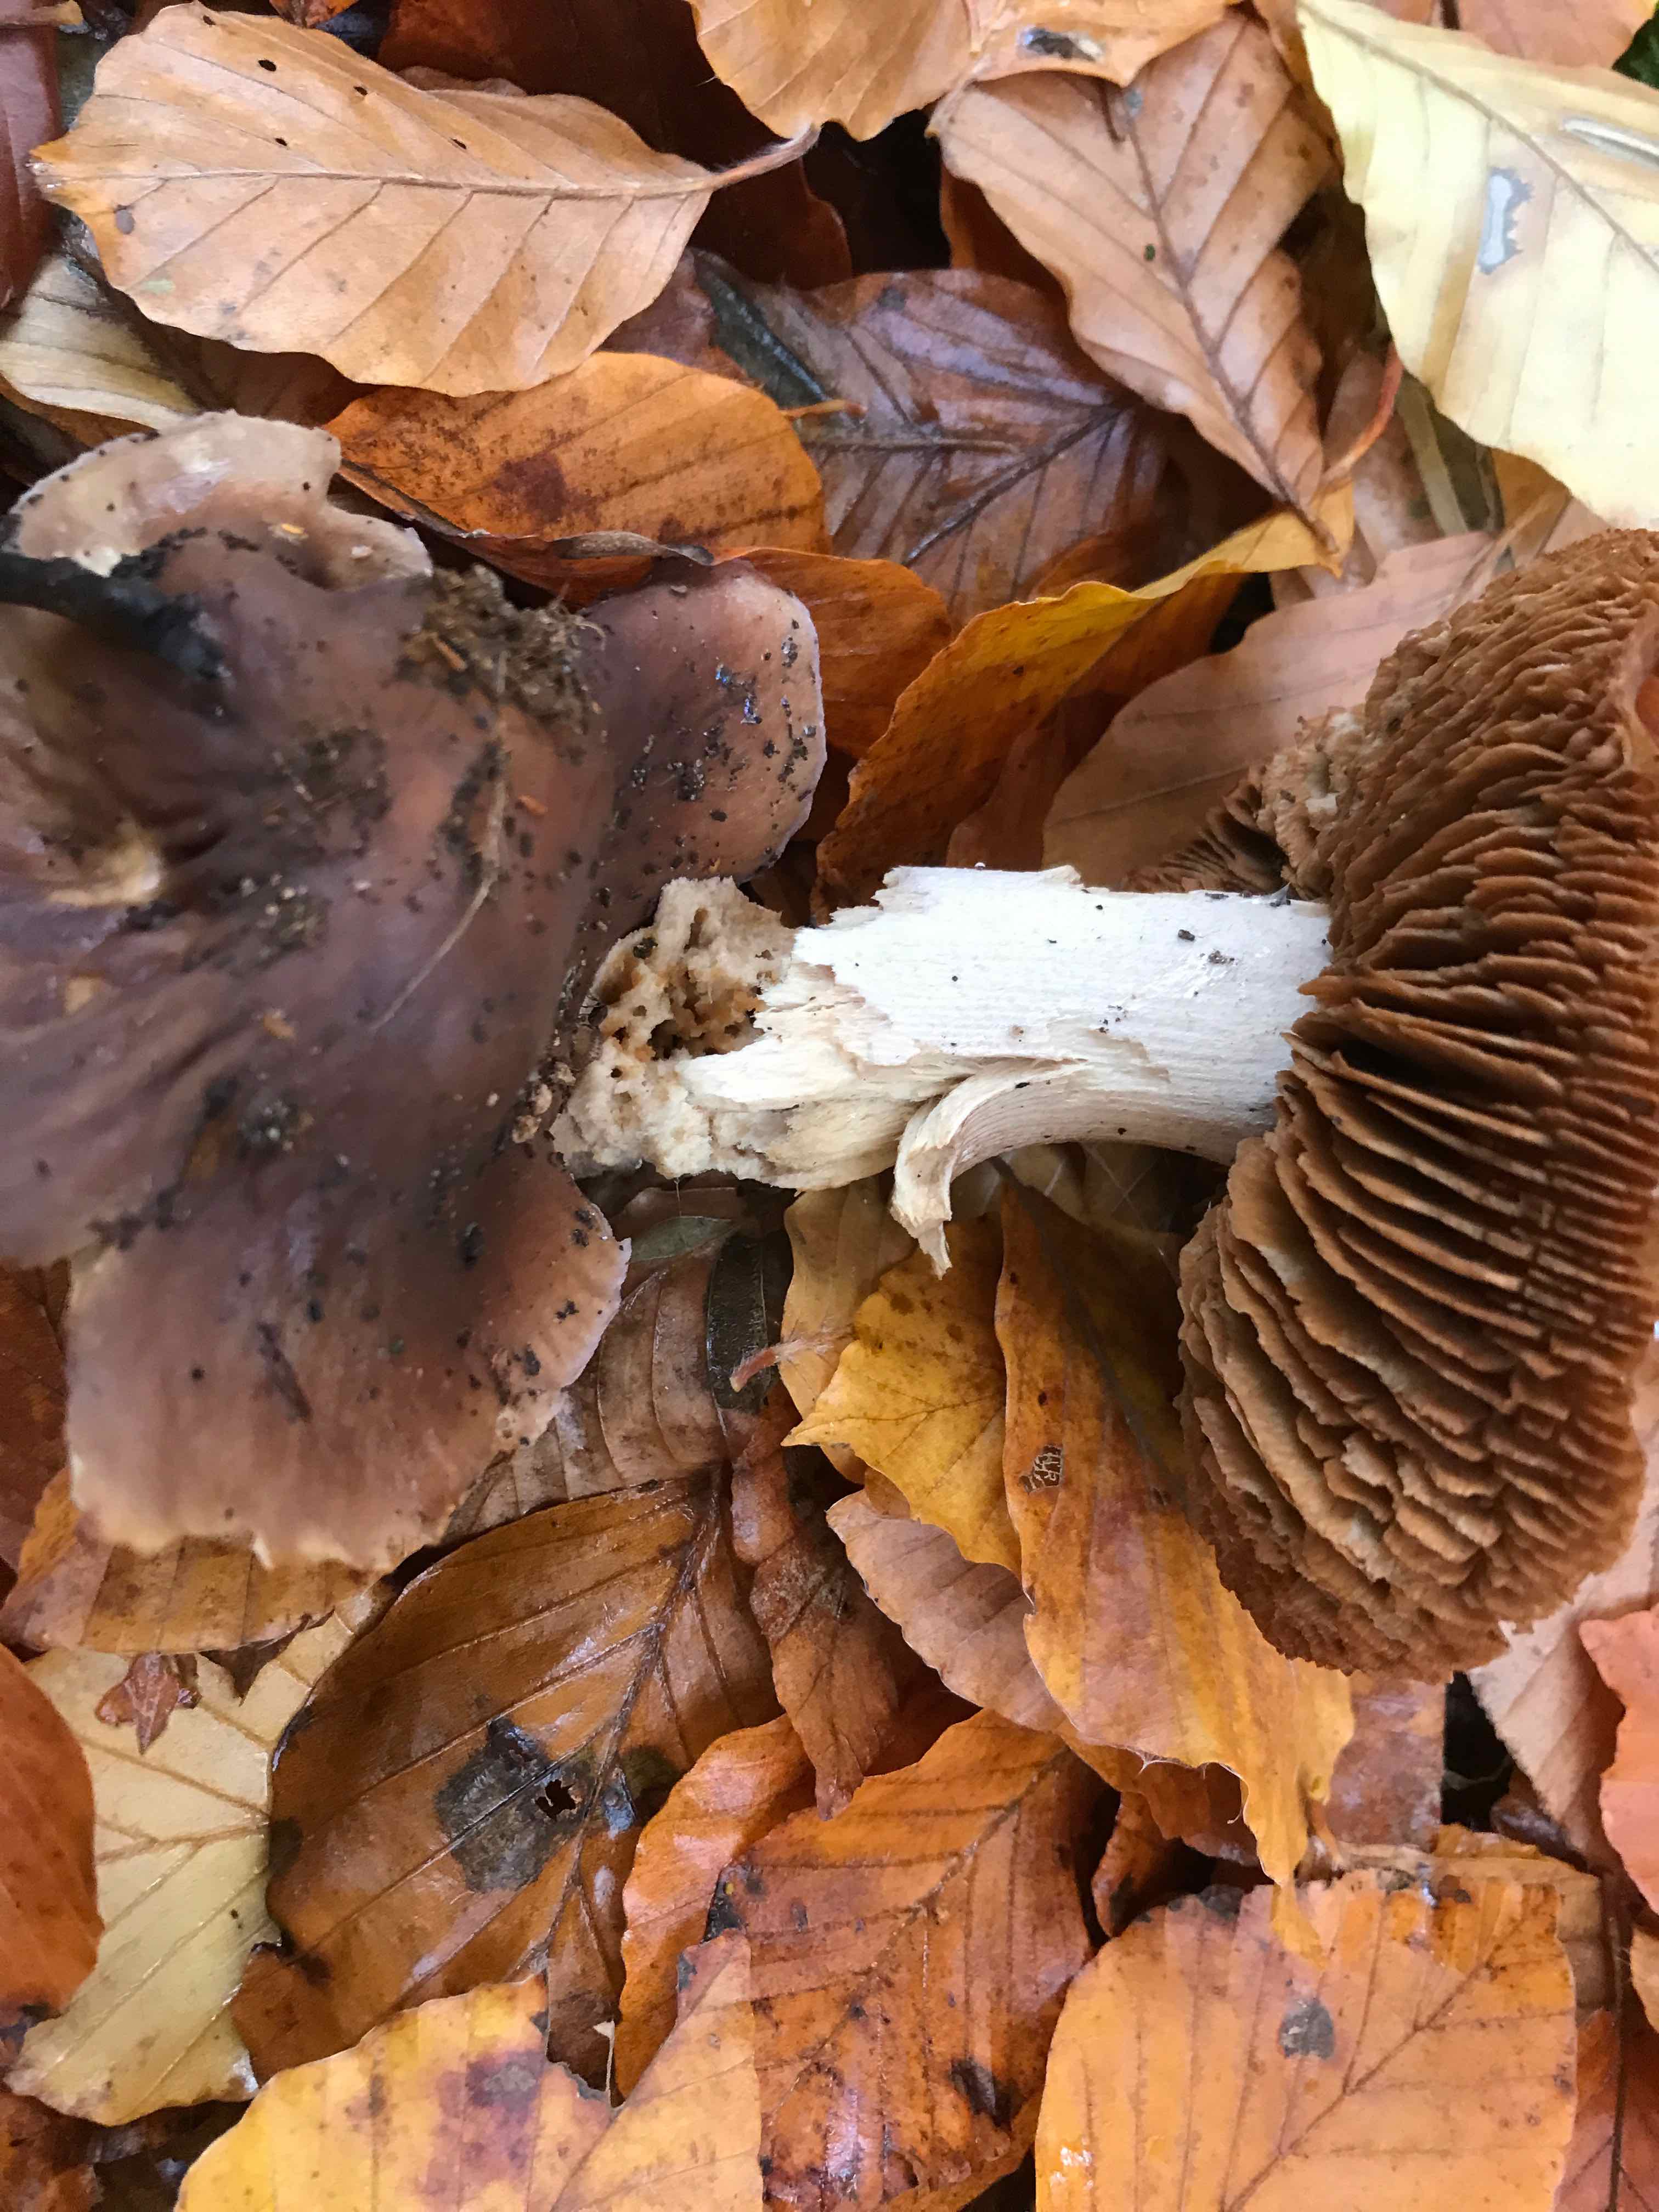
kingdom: Fungi
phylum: Basidiomycota
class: Agaricomycetes
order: Agaricales
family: Cortinariaceae
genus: Cortinarius
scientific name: Cortinarius elatior
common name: høj slørhat
